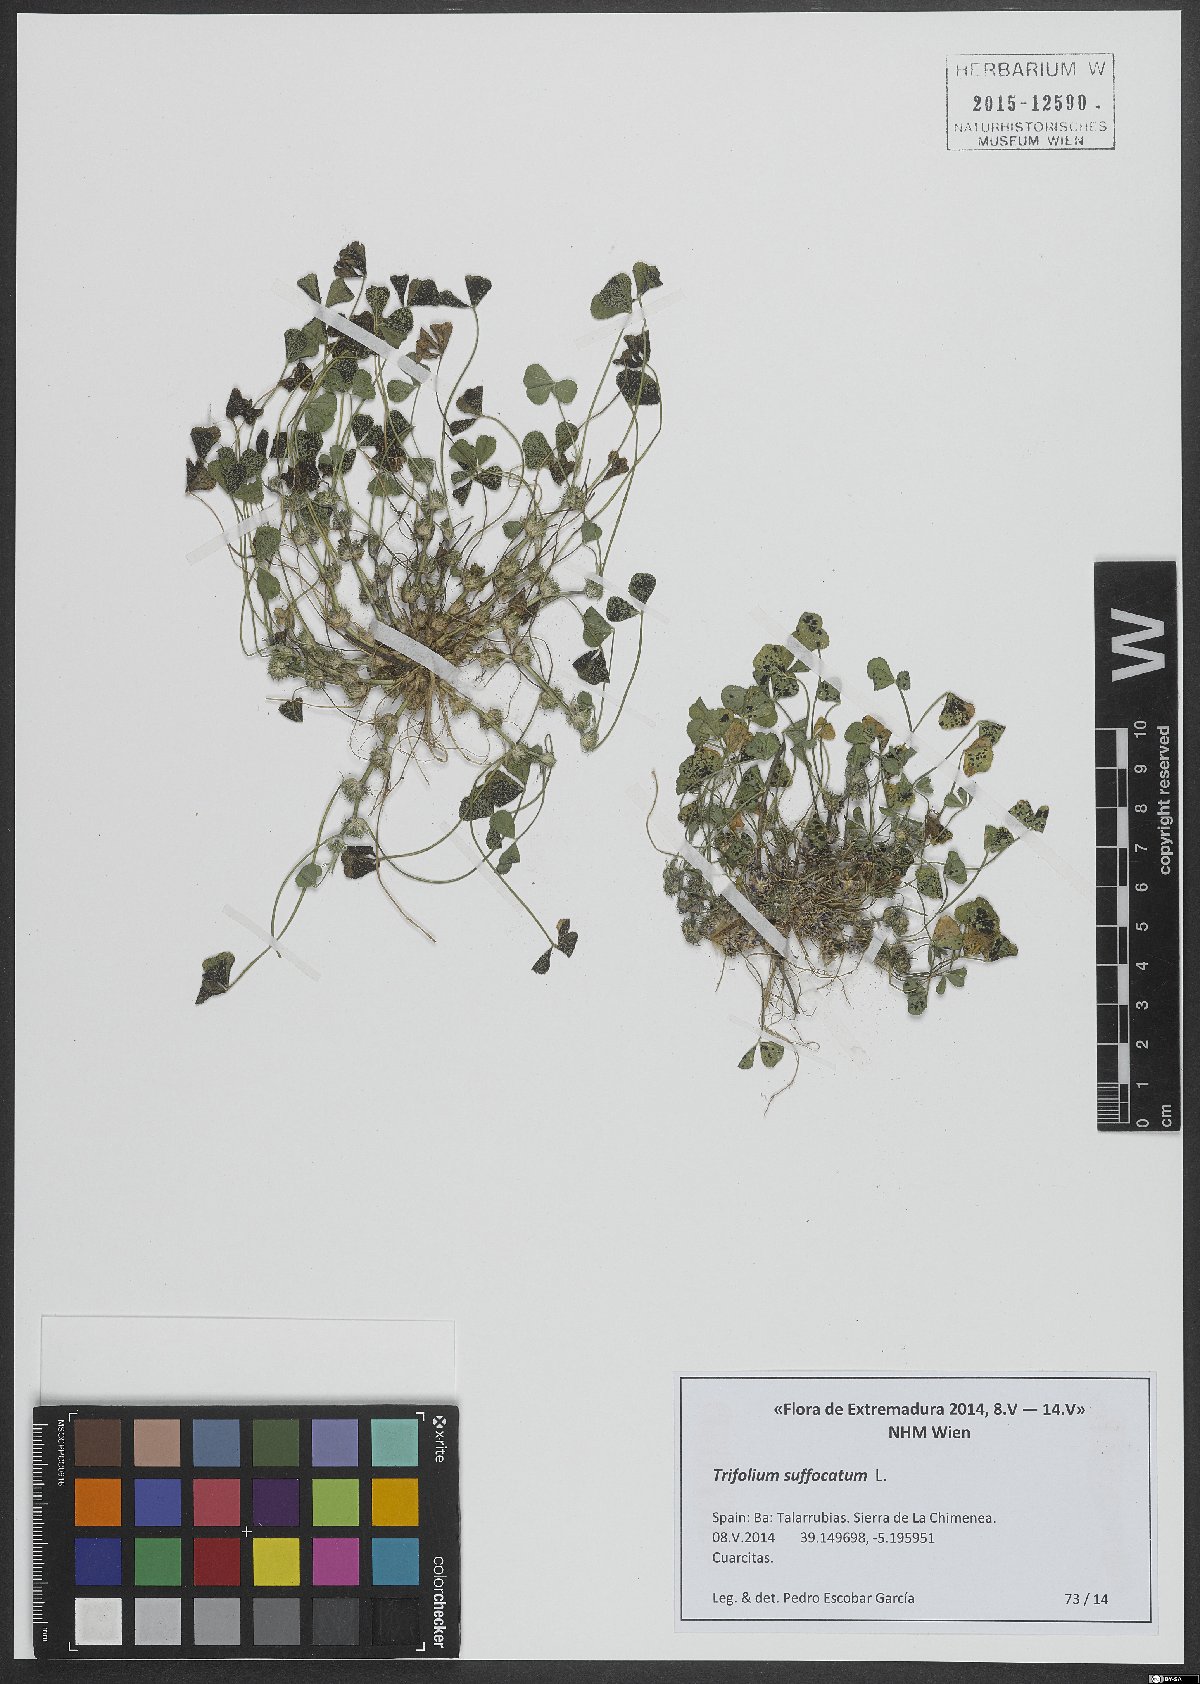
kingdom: Plantae
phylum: Tracheophyta
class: Magnoliopsida
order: Fabales
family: Fabaceae
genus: Trifolium
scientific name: Trifolium suffocatum
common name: Suffocated clover
